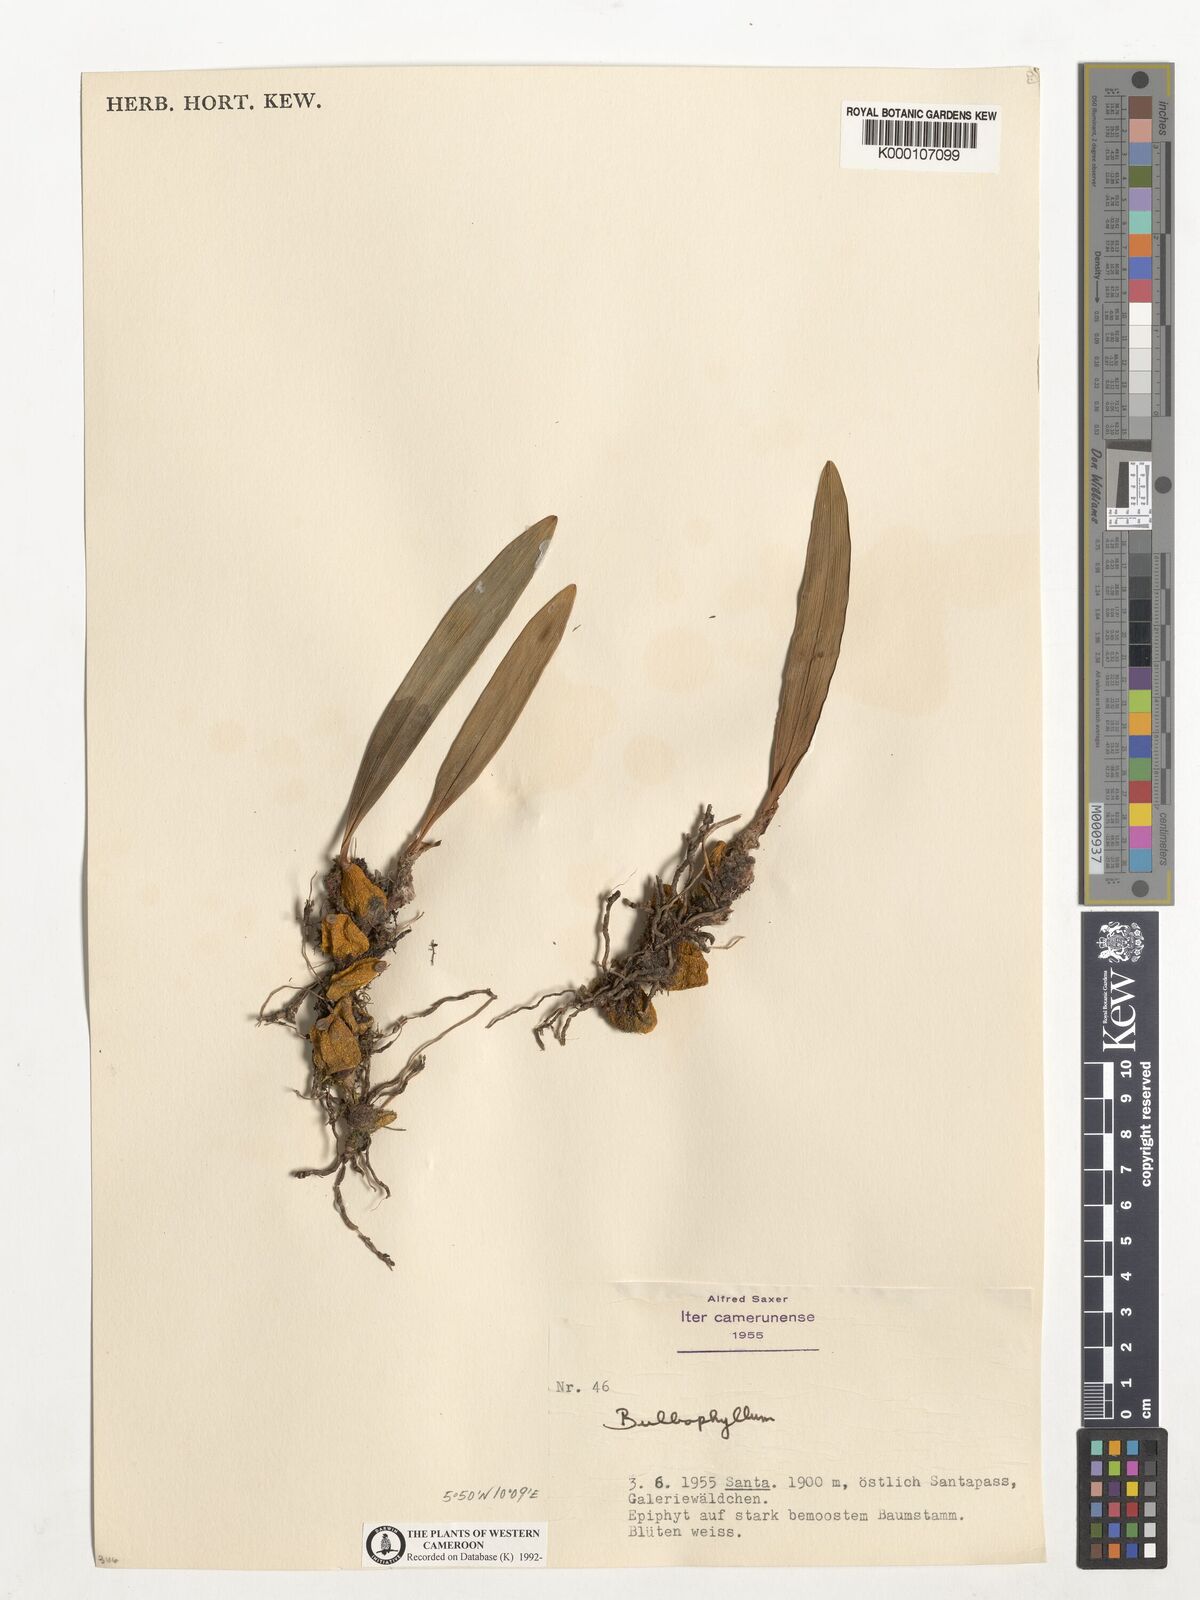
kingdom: Plantae
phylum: Tracheophyta
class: Liliopsida
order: Asparagales
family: Orchidaceae
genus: Bulbophyllum
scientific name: Bulbophyllum
